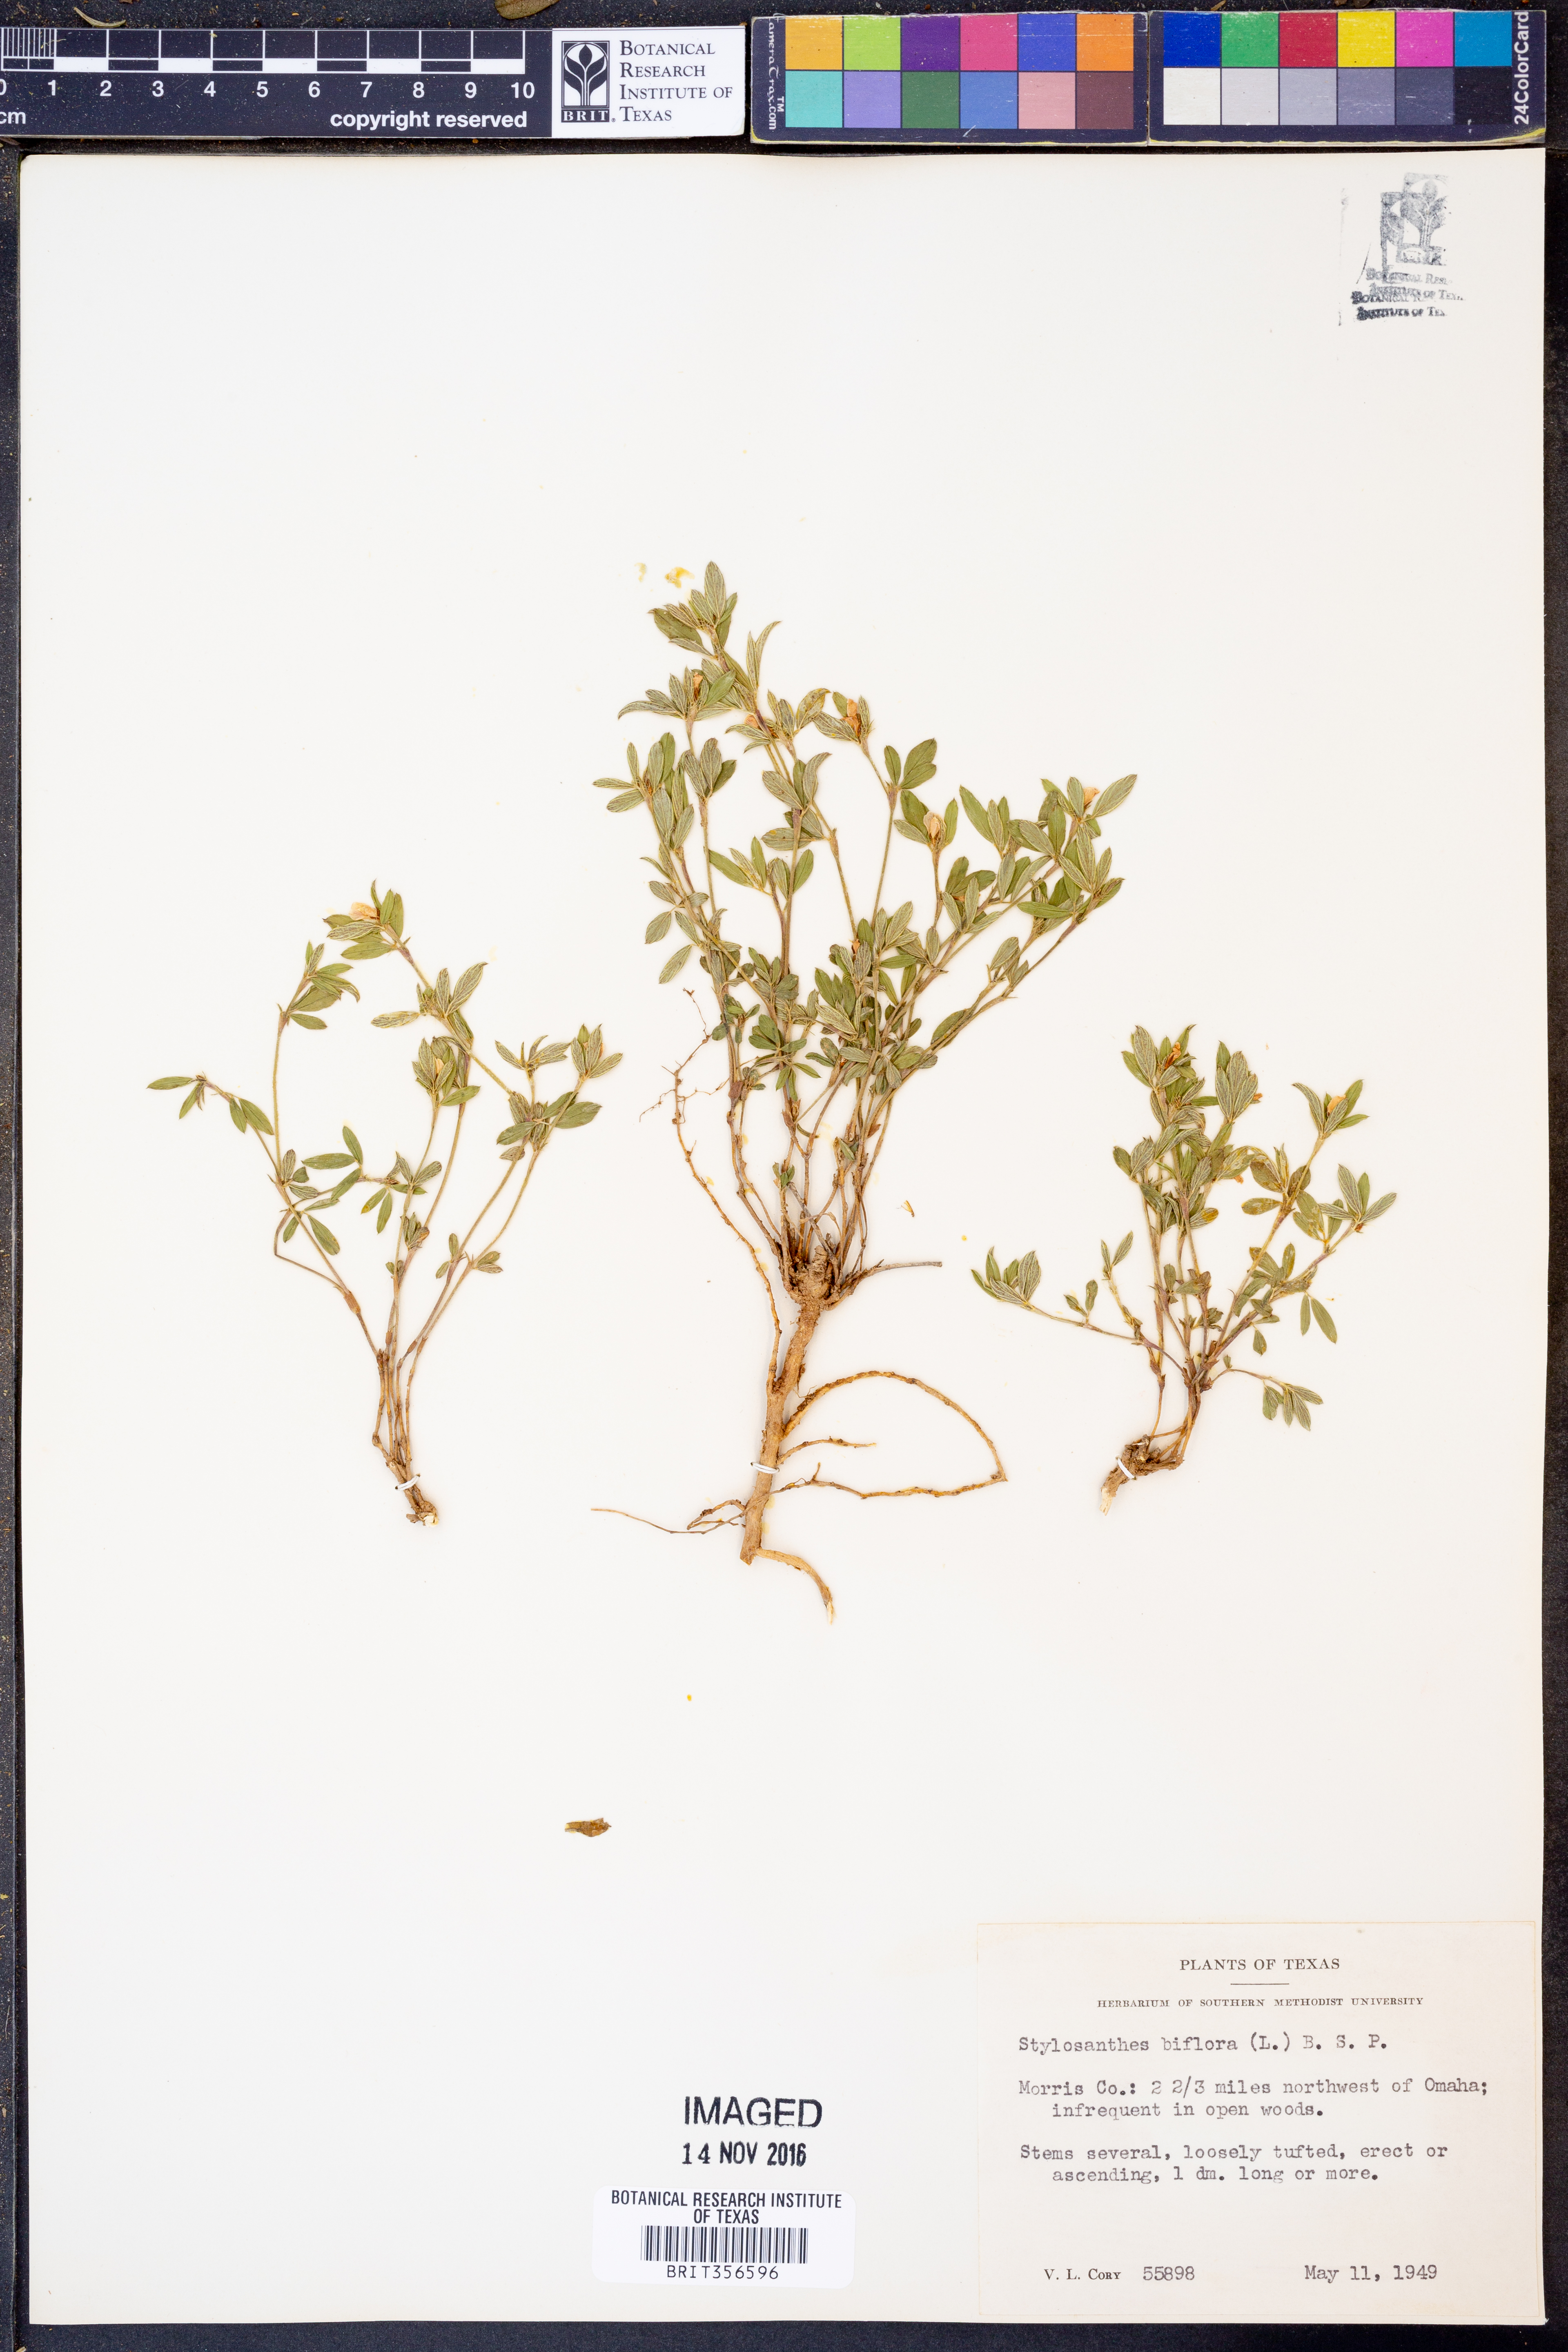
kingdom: Plantae
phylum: Tracheophyta
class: Magnoliopsida
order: Fabales
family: Fabaceae
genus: Stylosanthes
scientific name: Stylosanthes biflora
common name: Two-flower pencil-flower
